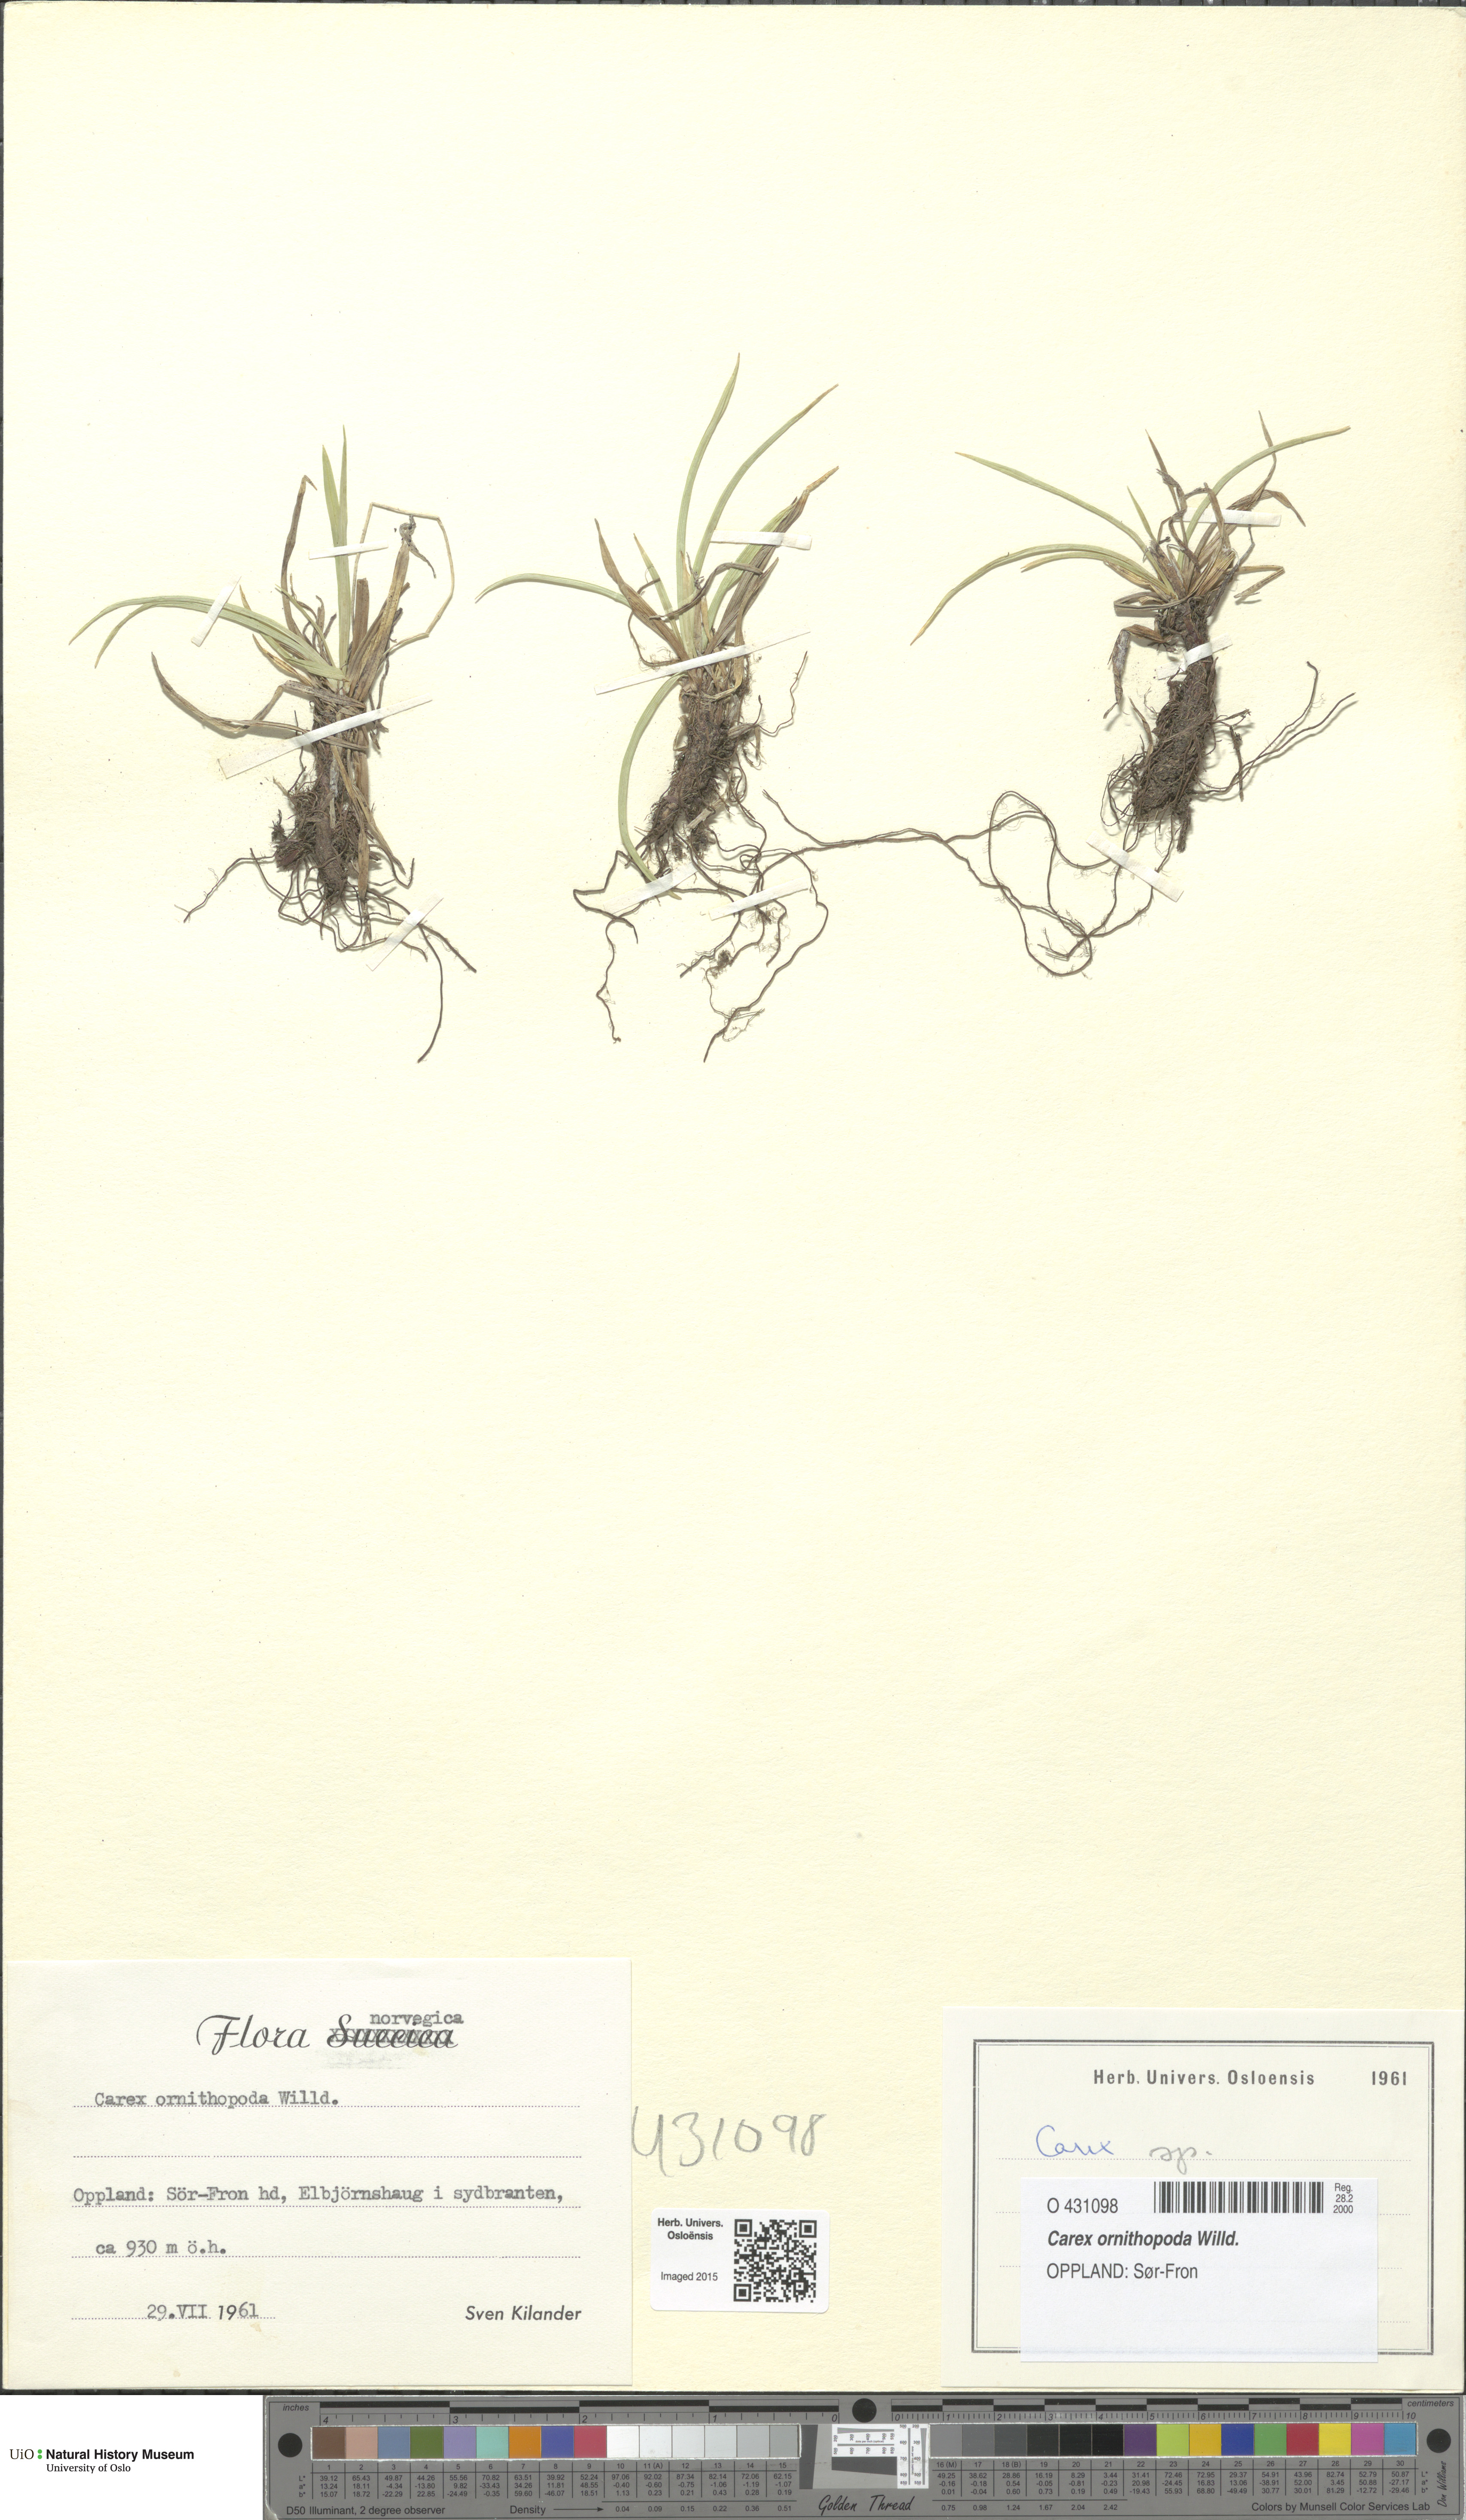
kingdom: Plantae
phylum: Tracheophyta
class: Liliopsida
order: Poales
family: Cyperaceae
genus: Carex
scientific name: Carex ornithopoda
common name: Bird's-foot sedge
